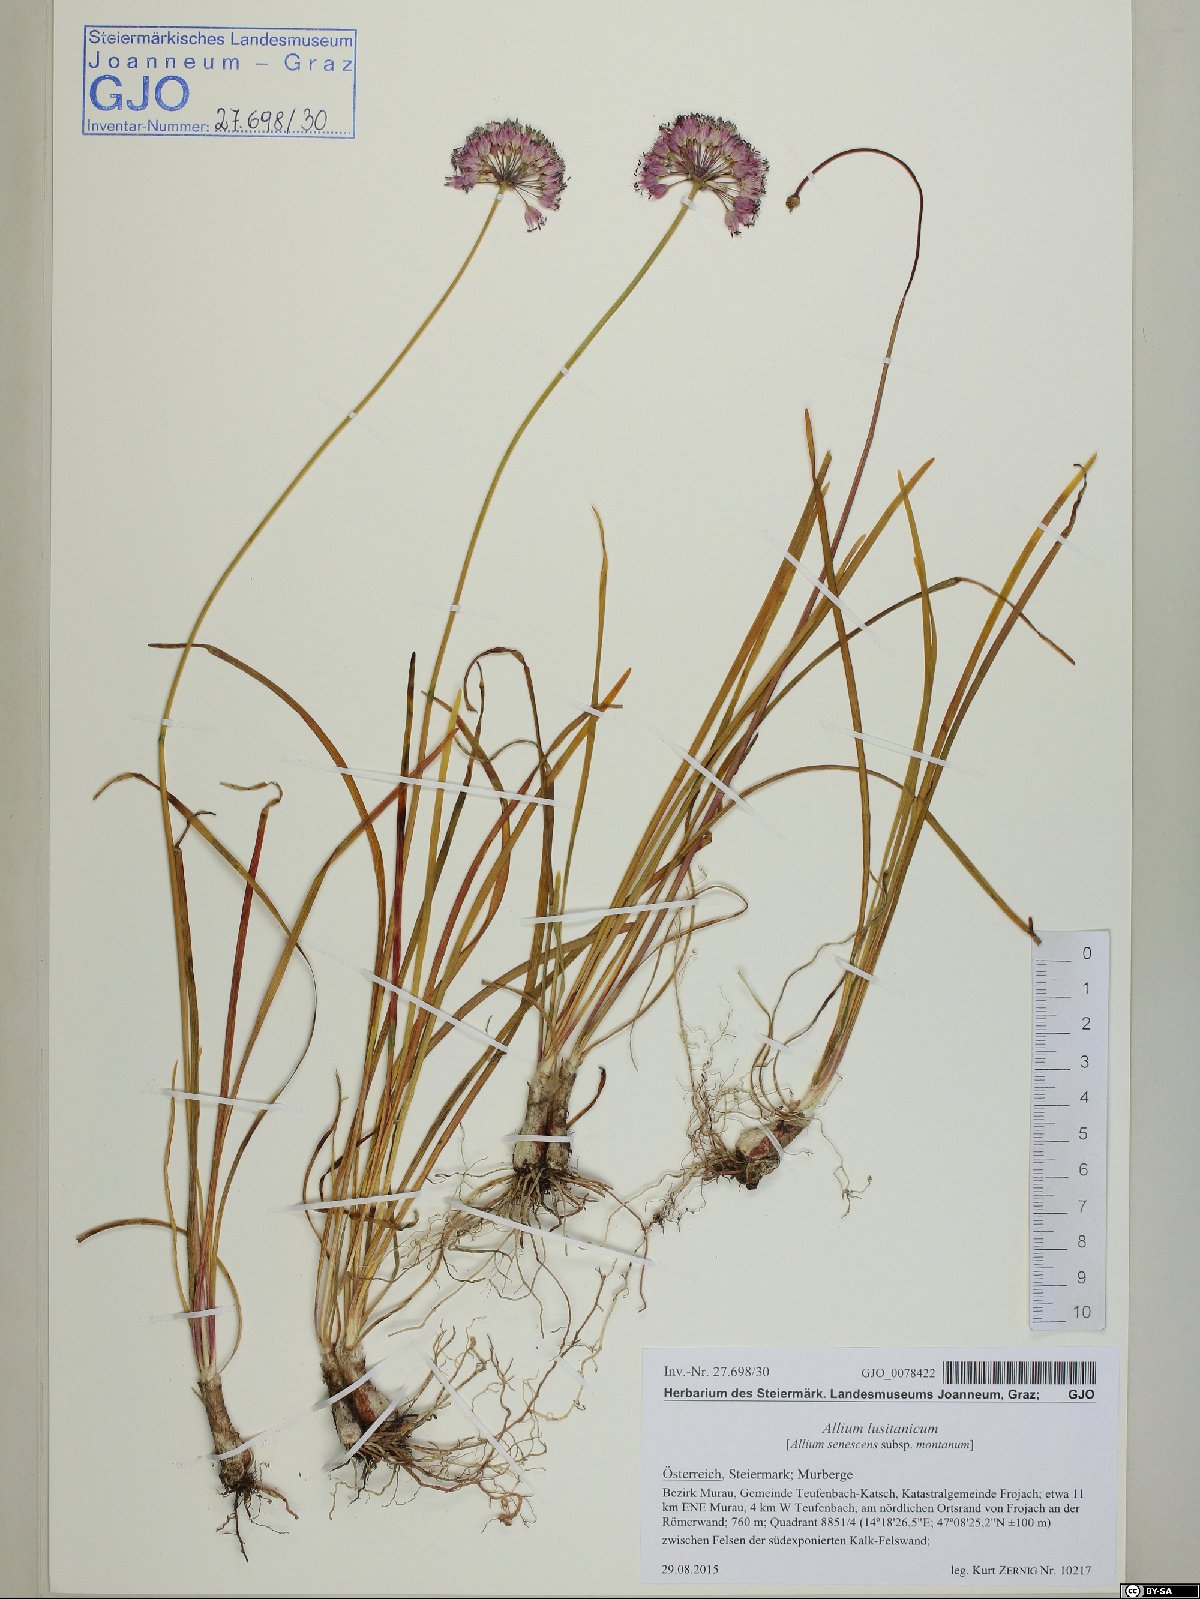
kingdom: Plantae
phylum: Tracheophyta
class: Liliopsida
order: Asparagales
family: Amaryllidaceae
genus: Allium
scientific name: Allium lusitanicum
